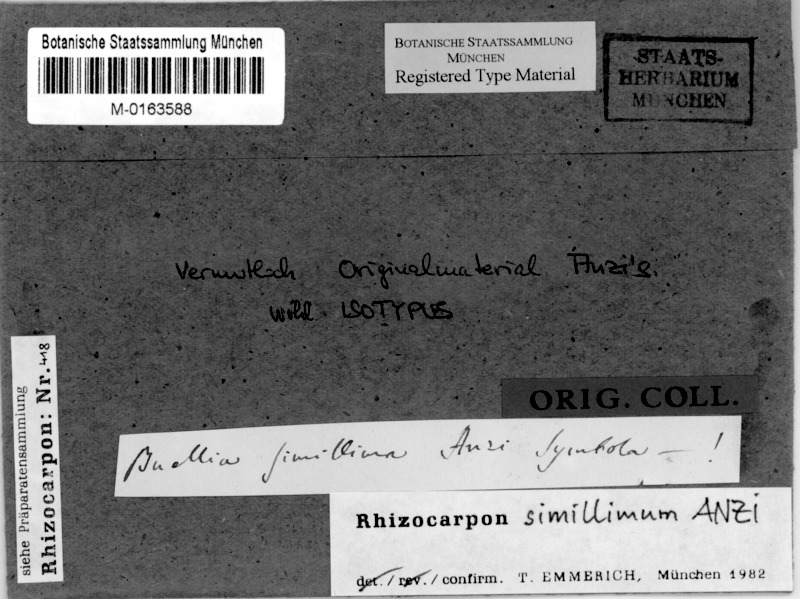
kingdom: Fungi
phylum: Ascomycota
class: Lecanoromycetes
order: Rhizocarpales
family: Rhizocarpaceae
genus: Rhizocarpon
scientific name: Rhizocarpon simillimum
